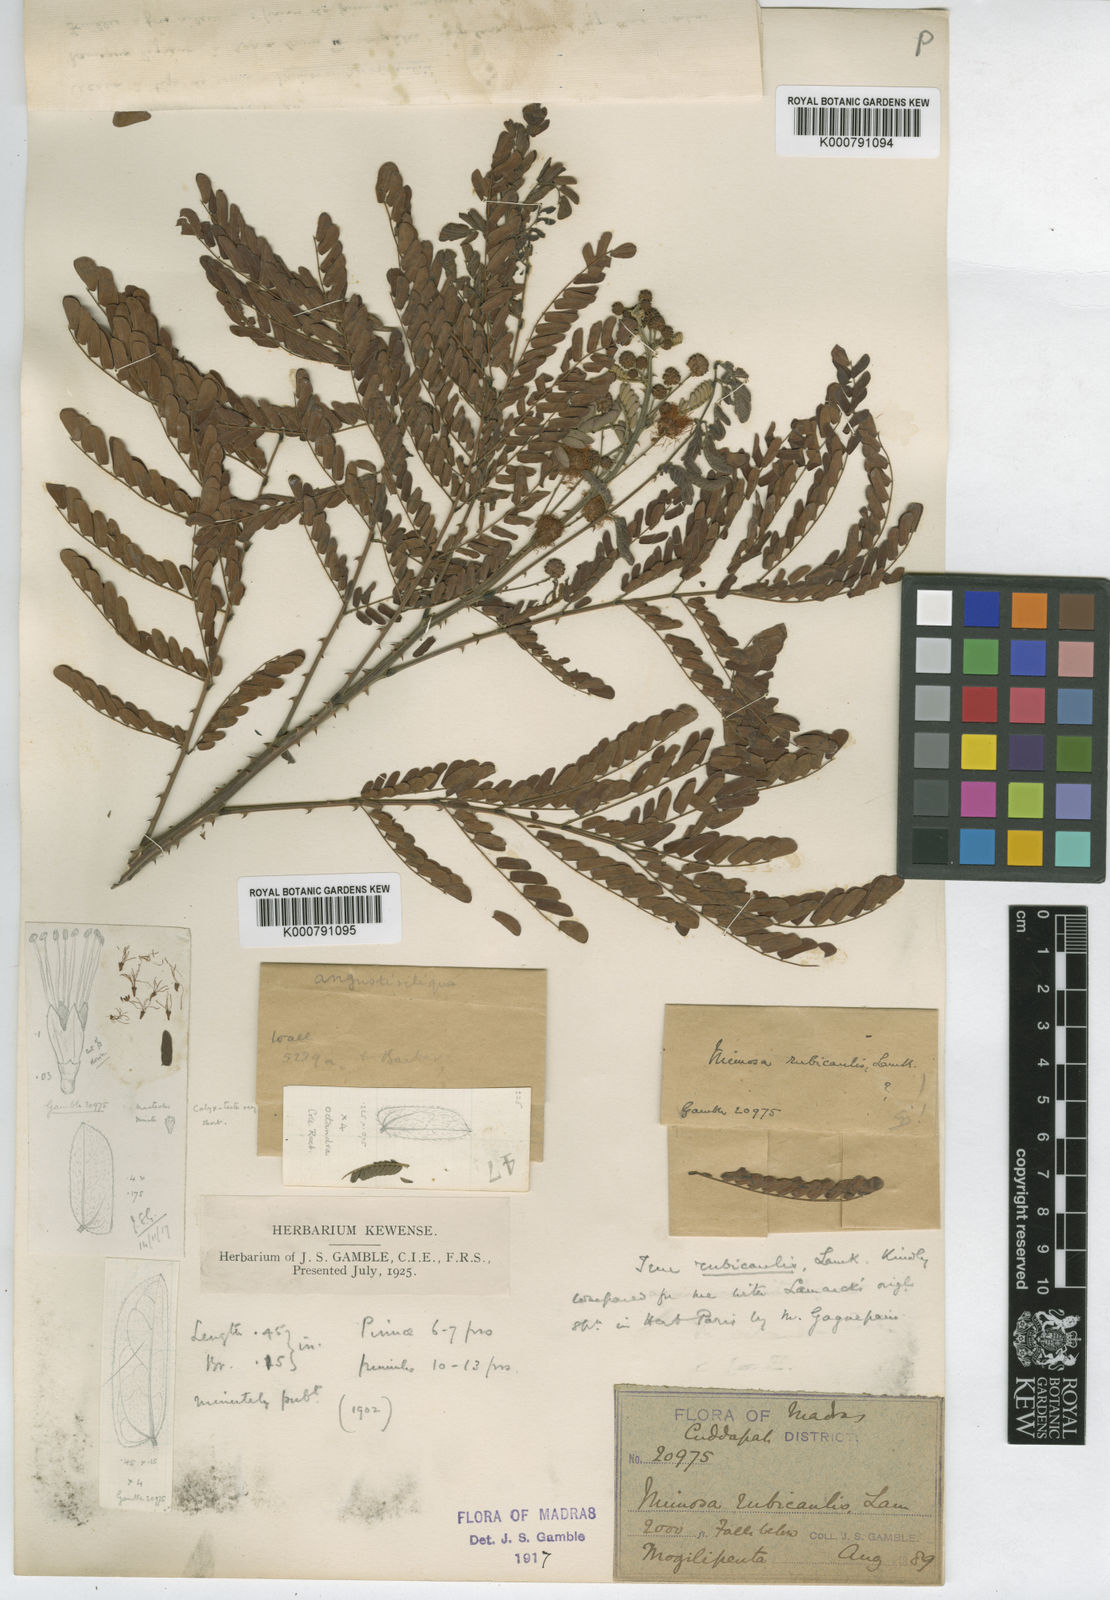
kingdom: Plantae
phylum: Tracheophyta
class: Magnoliopsida
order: Fabales
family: Fabaceae
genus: Mimosa
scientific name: Mimosa rubicaulis
